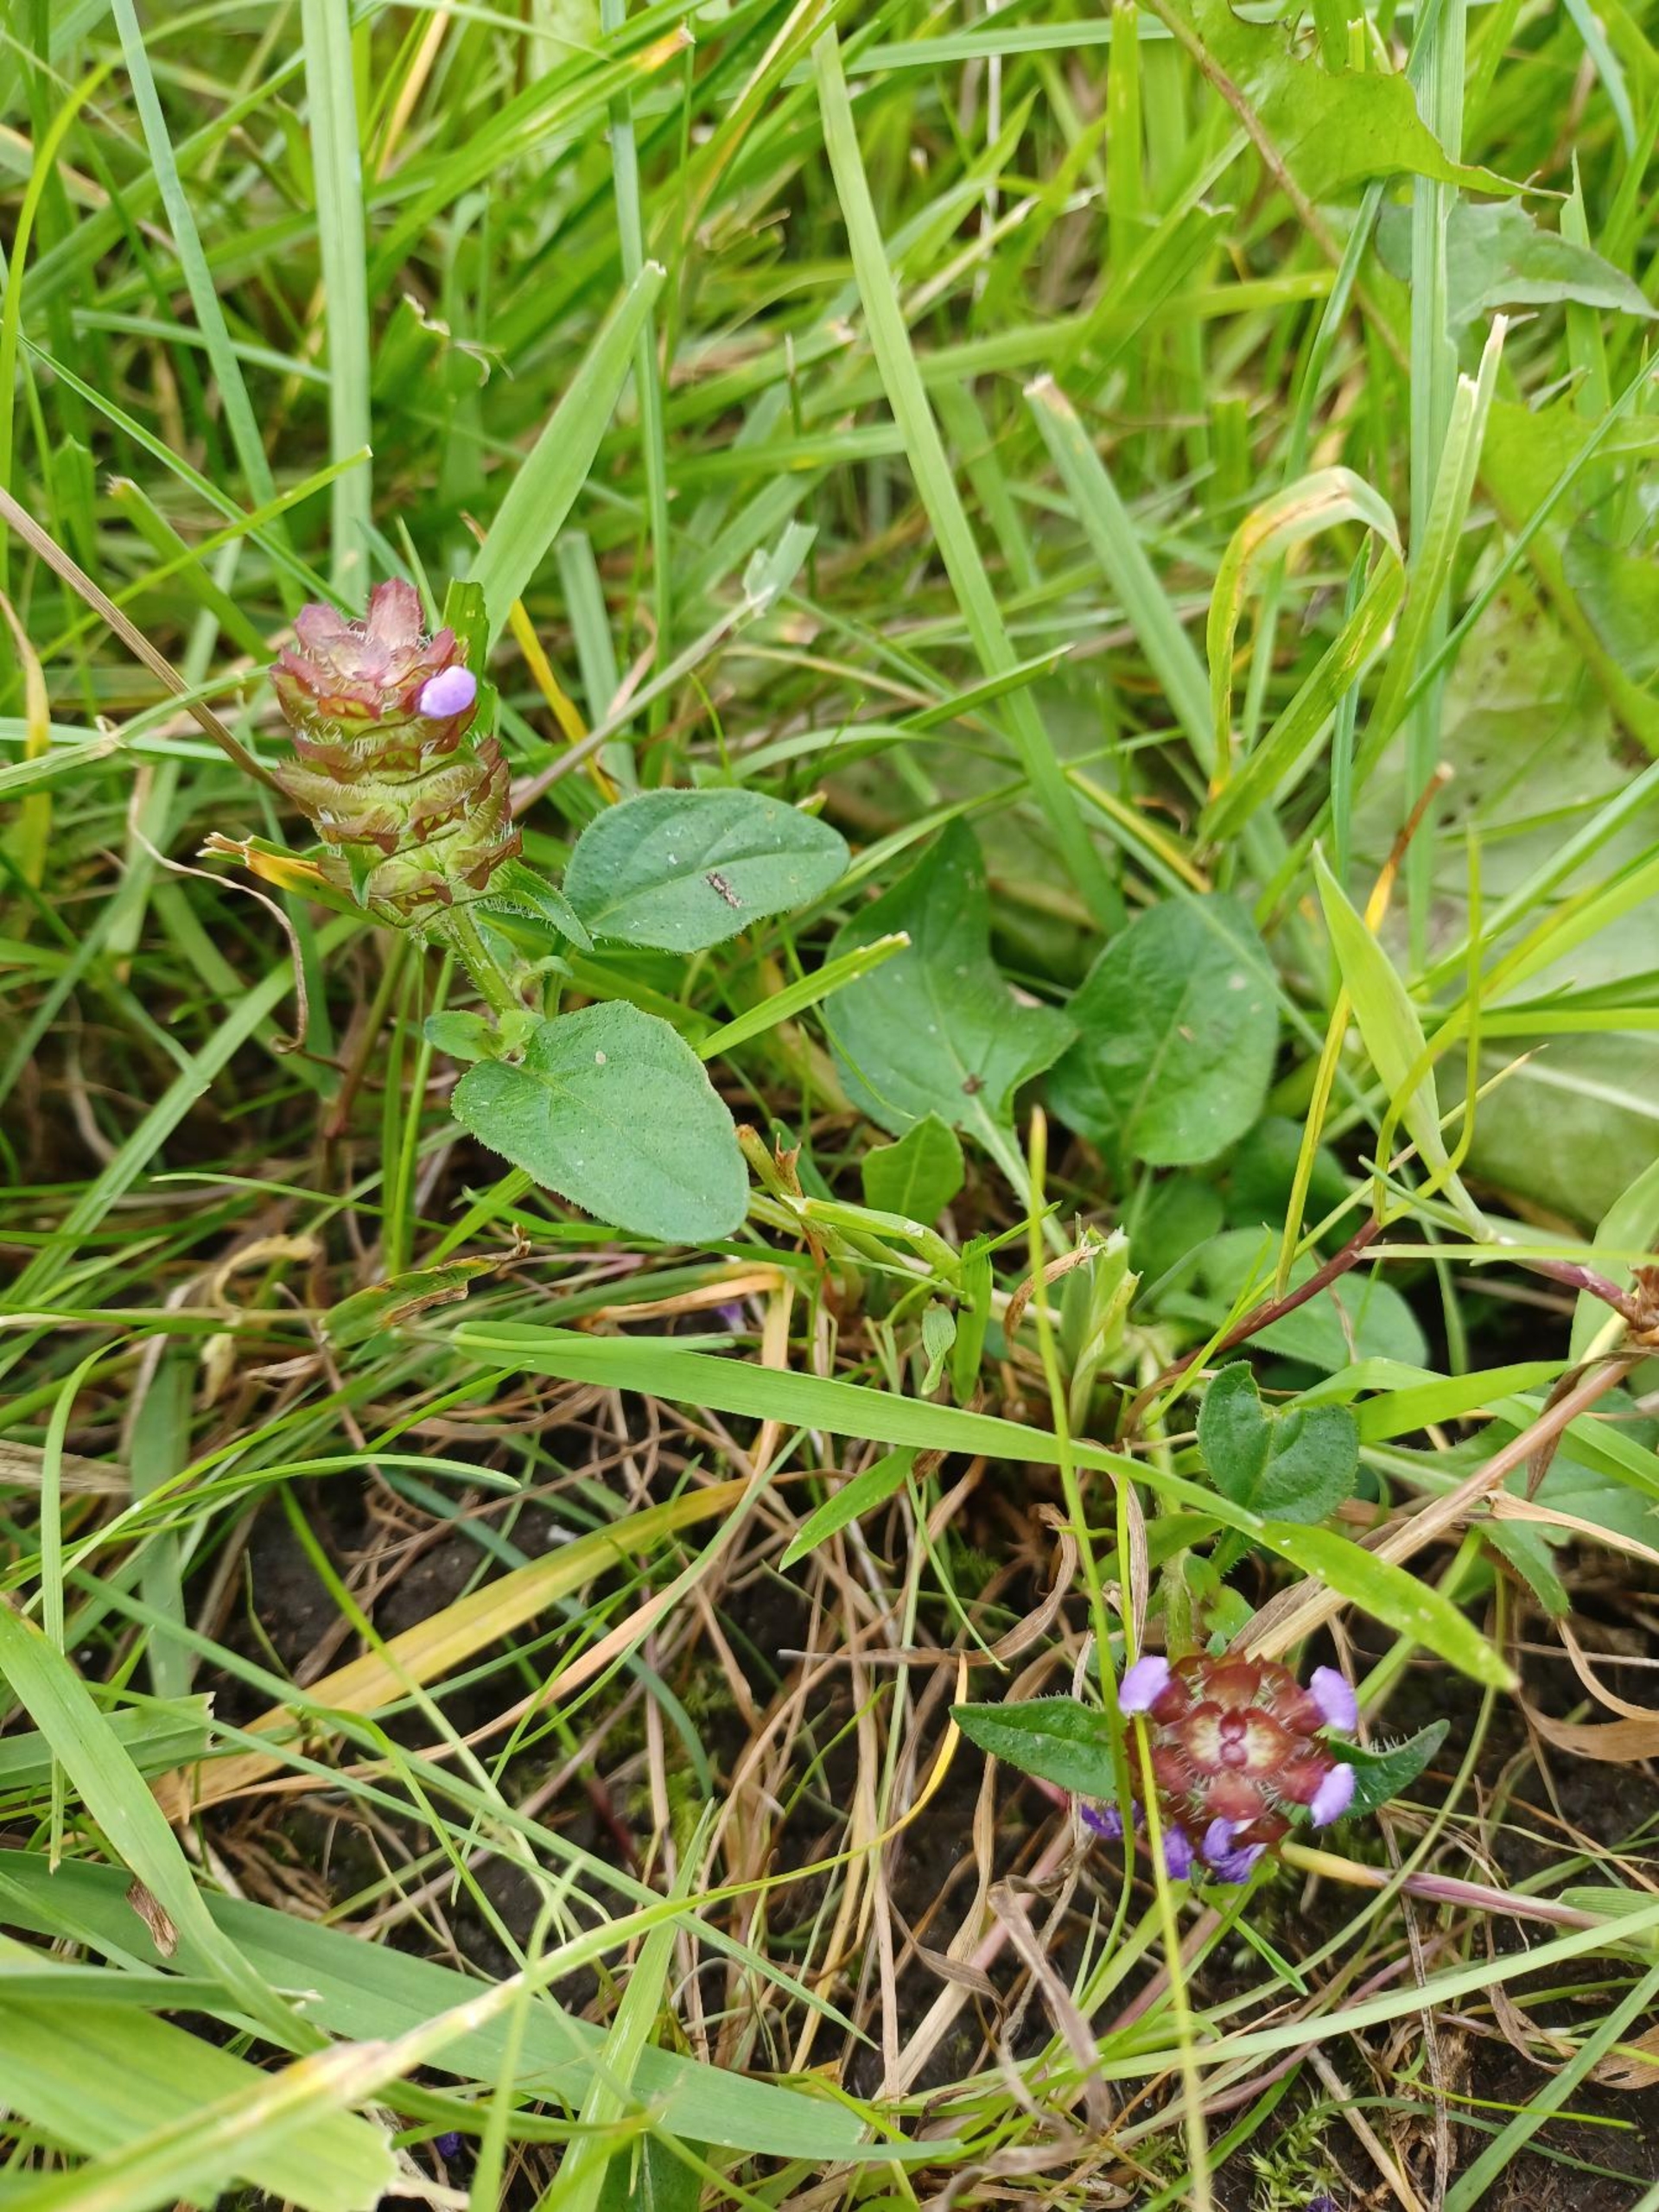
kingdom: Plantae
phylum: Tracheophyta
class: Magnoliopsida
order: Lamiales
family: Lamiaceae
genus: Prunella
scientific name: Prunella vulgaris
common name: Almindelig brunelle
